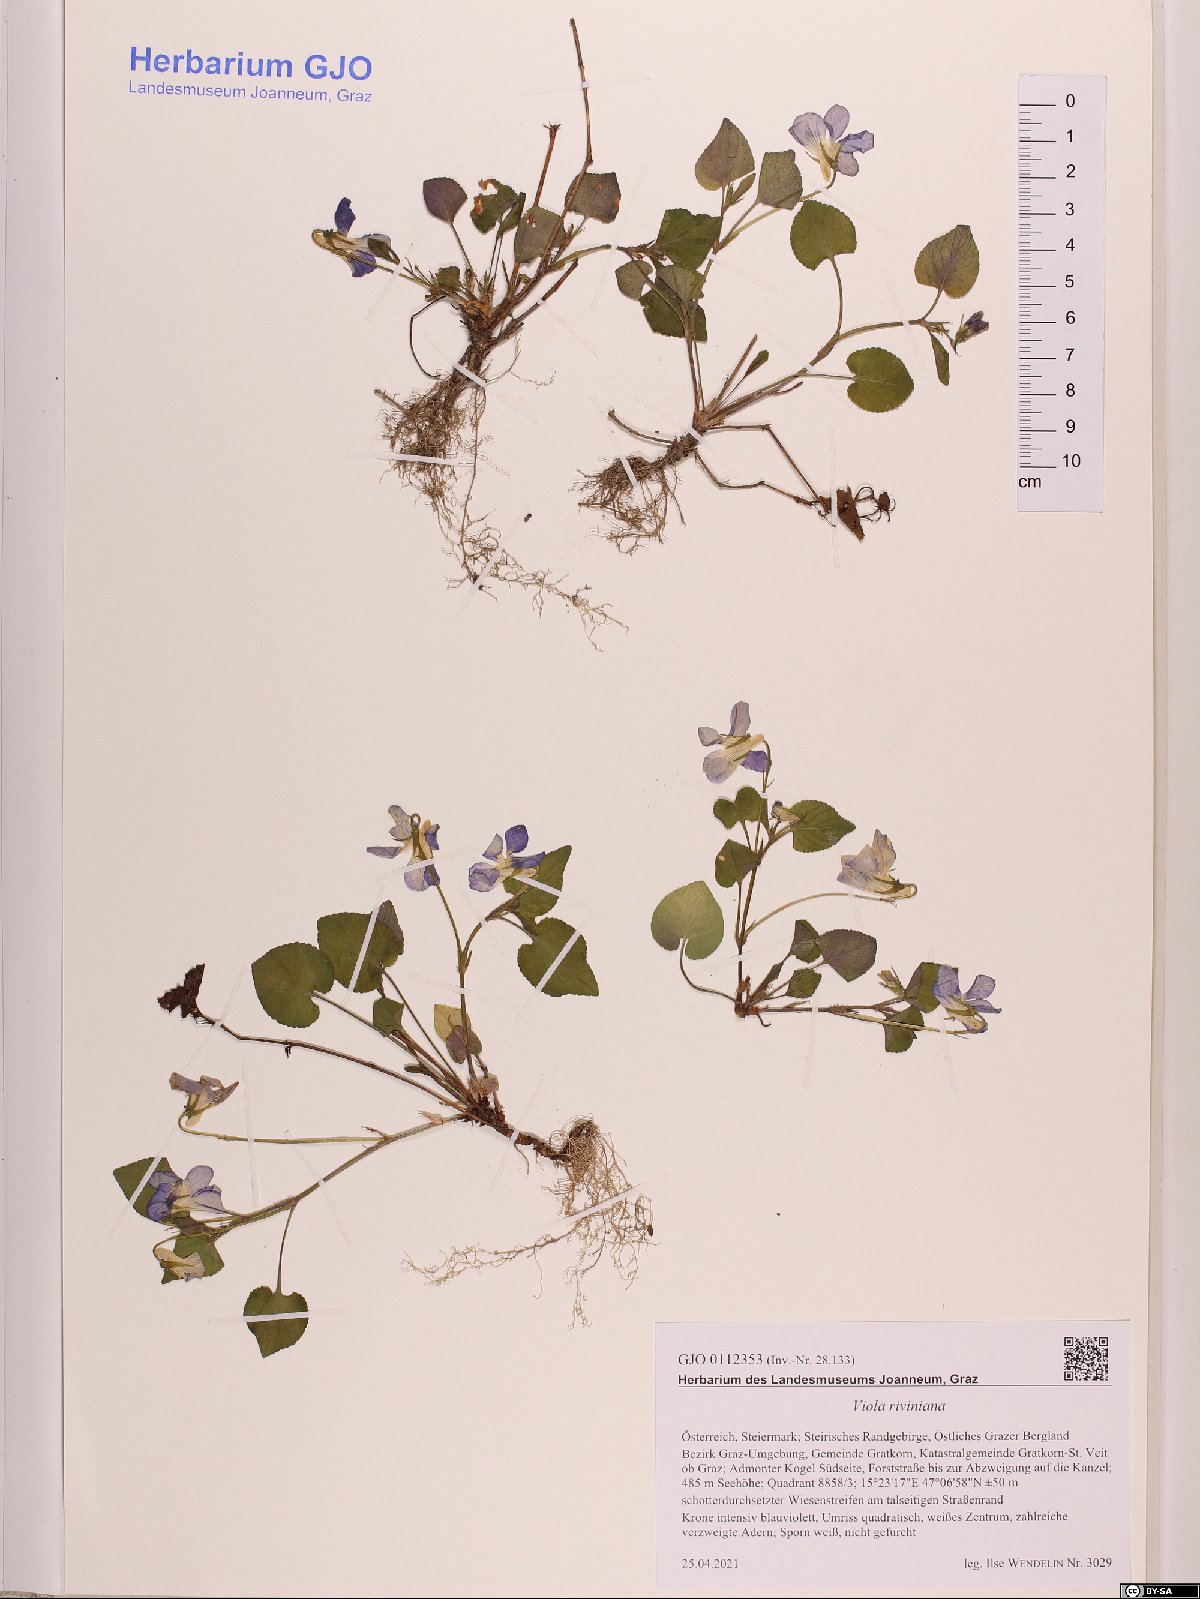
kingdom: Plantae
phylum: Tracheophyta
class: Magnoliopsida
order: Malpighiales
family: Violaceae
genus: Viola
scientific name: Viola riviniana
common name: Common dog-violet
